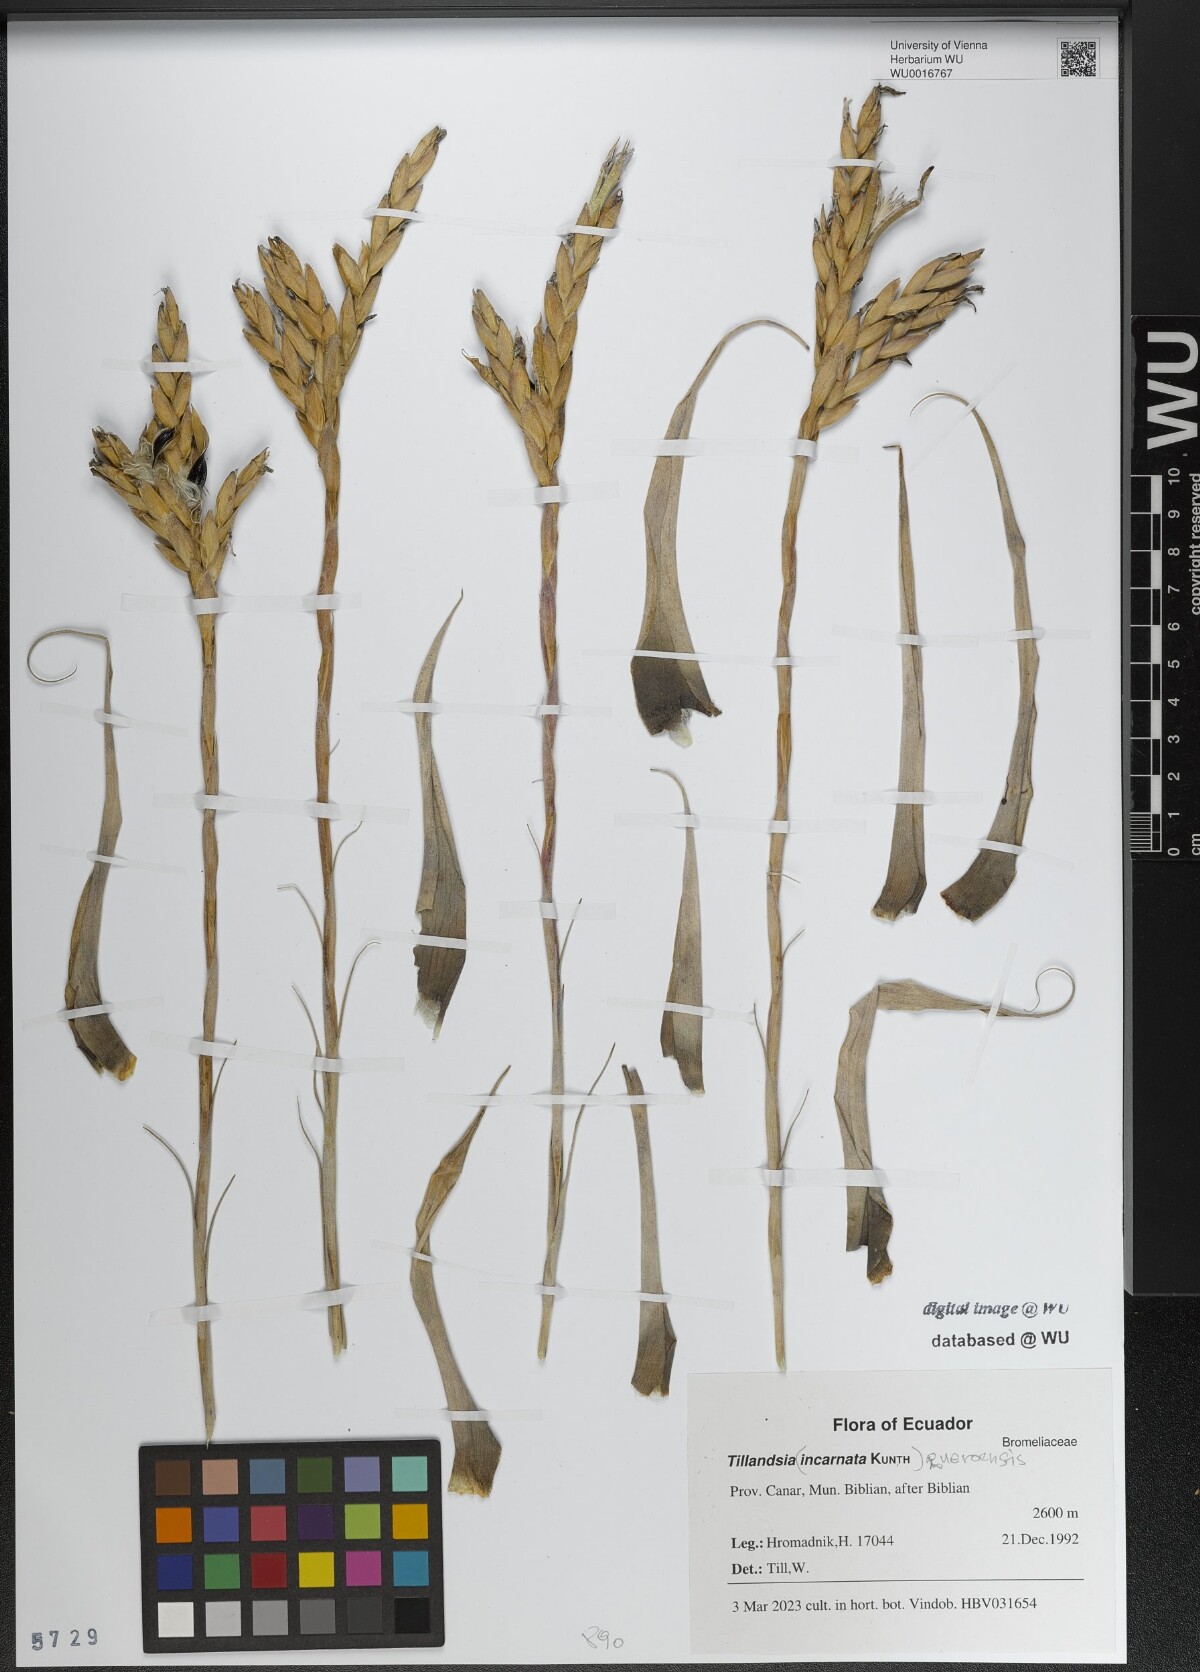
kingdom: Plantae
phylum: Tracheophyta
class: Liliopsida
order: Poales
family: Bromeliaceae
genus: Tillandsia
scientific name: Tillandsia incarnata
